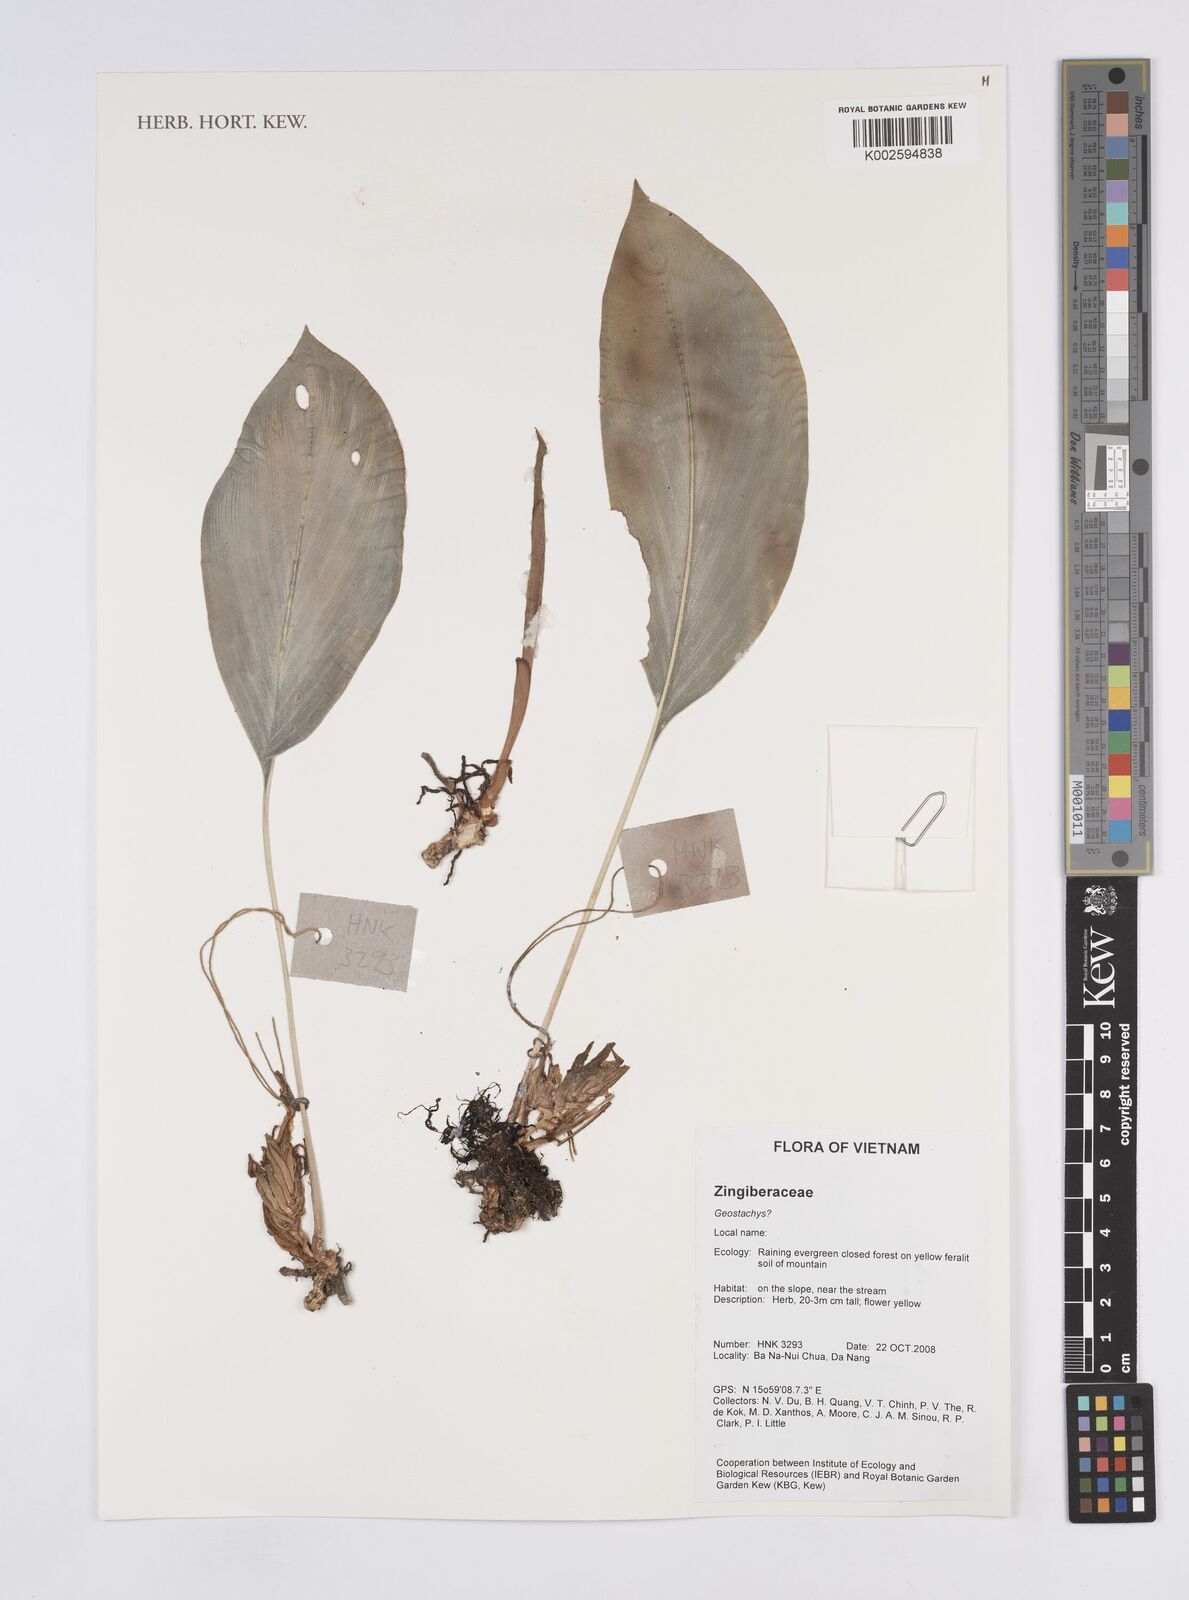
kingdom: Plantae
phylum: Tracheophyta
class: Liliopsida
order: Zingiberales
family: Zingiberaceae
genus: Geostachys
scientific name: Geostachys
